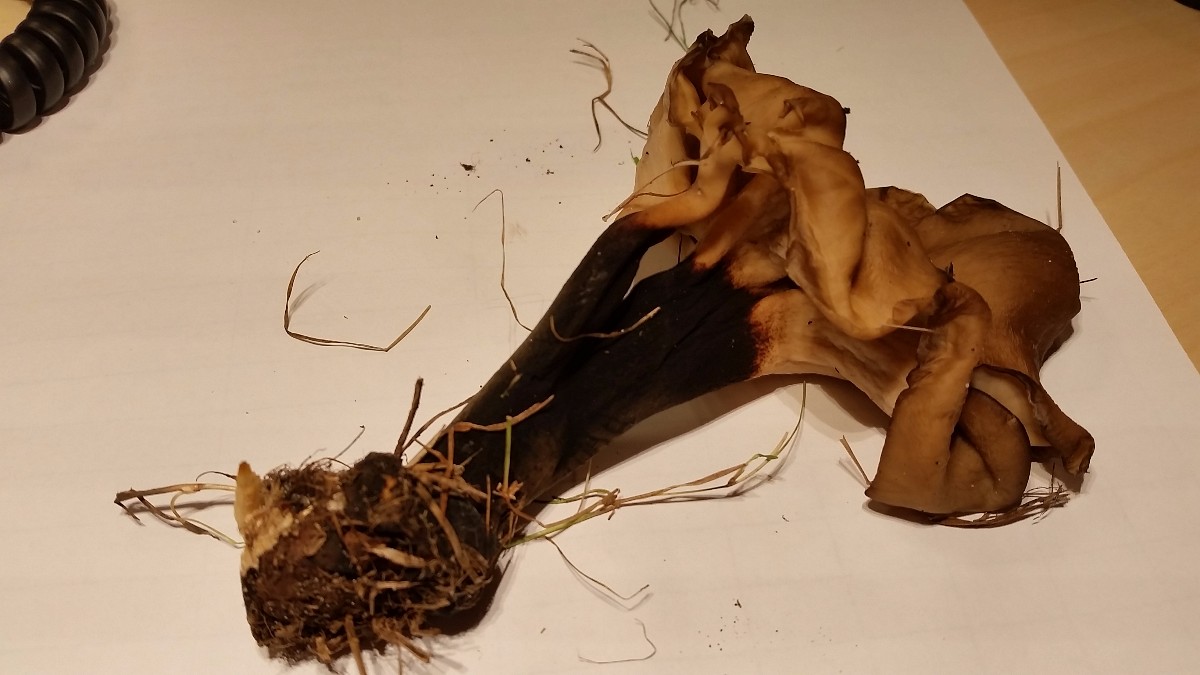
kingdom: Fungi
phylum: Basidiomycota
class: Agaricomycetes
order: Polyporales
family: Polyporaceae
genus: Picipes
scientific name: Picipes melanopus
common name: sortfodet stilkporesvamp
